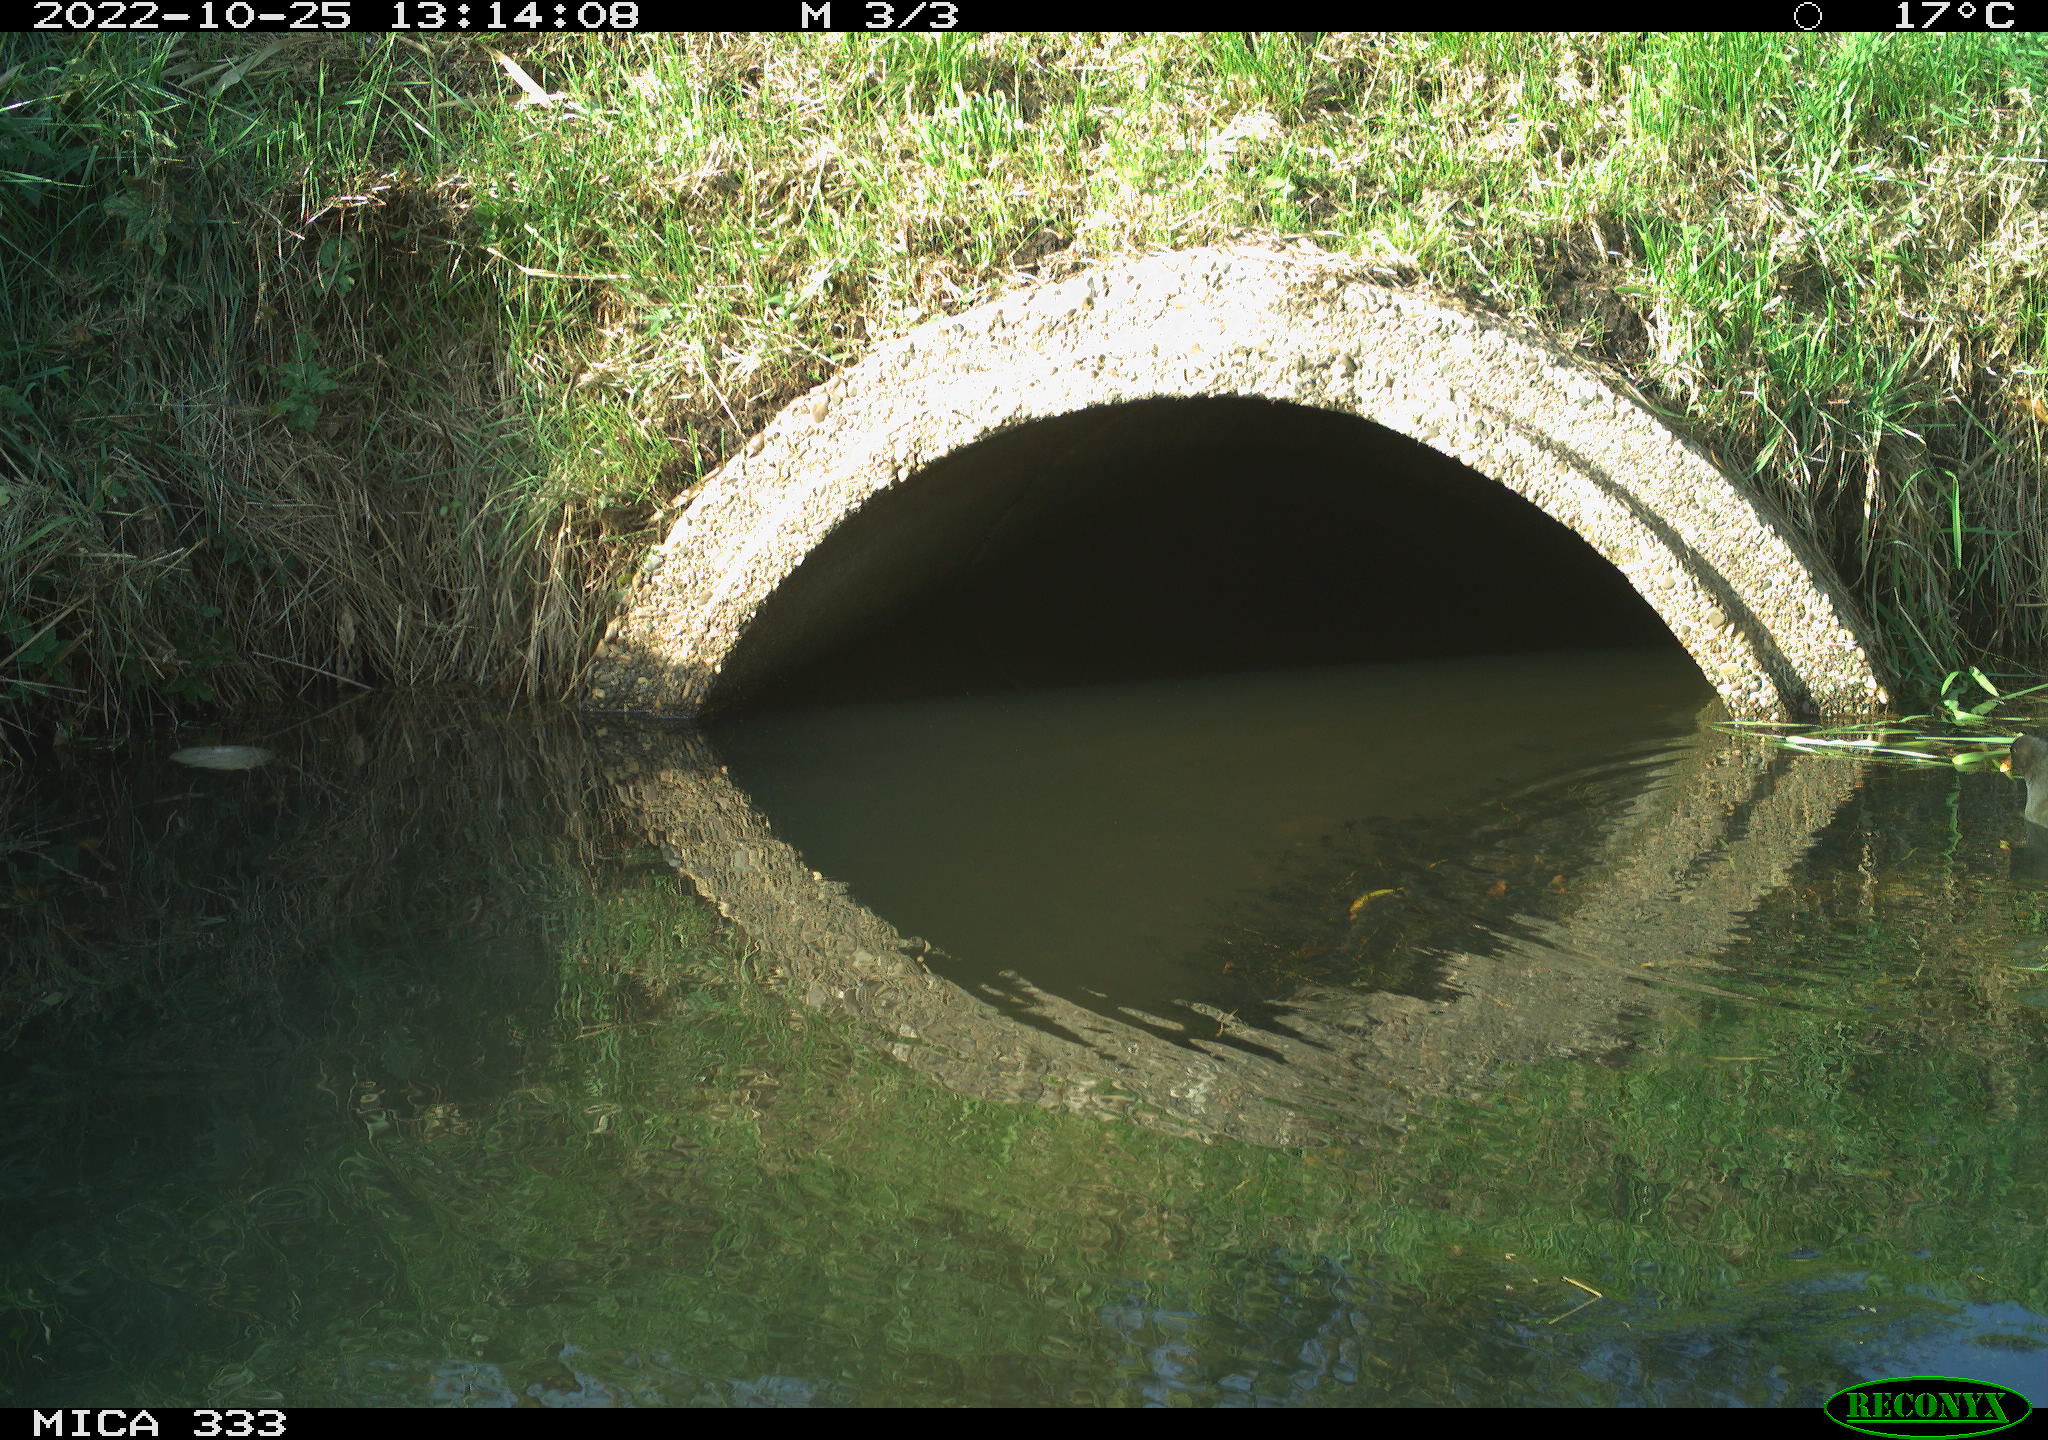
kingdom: Animalia
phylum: Chordata
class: Aves
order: Gruiformes
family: Rallidae
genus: Gallinula
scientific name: Gallinula chloropus
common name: Common moorhen
